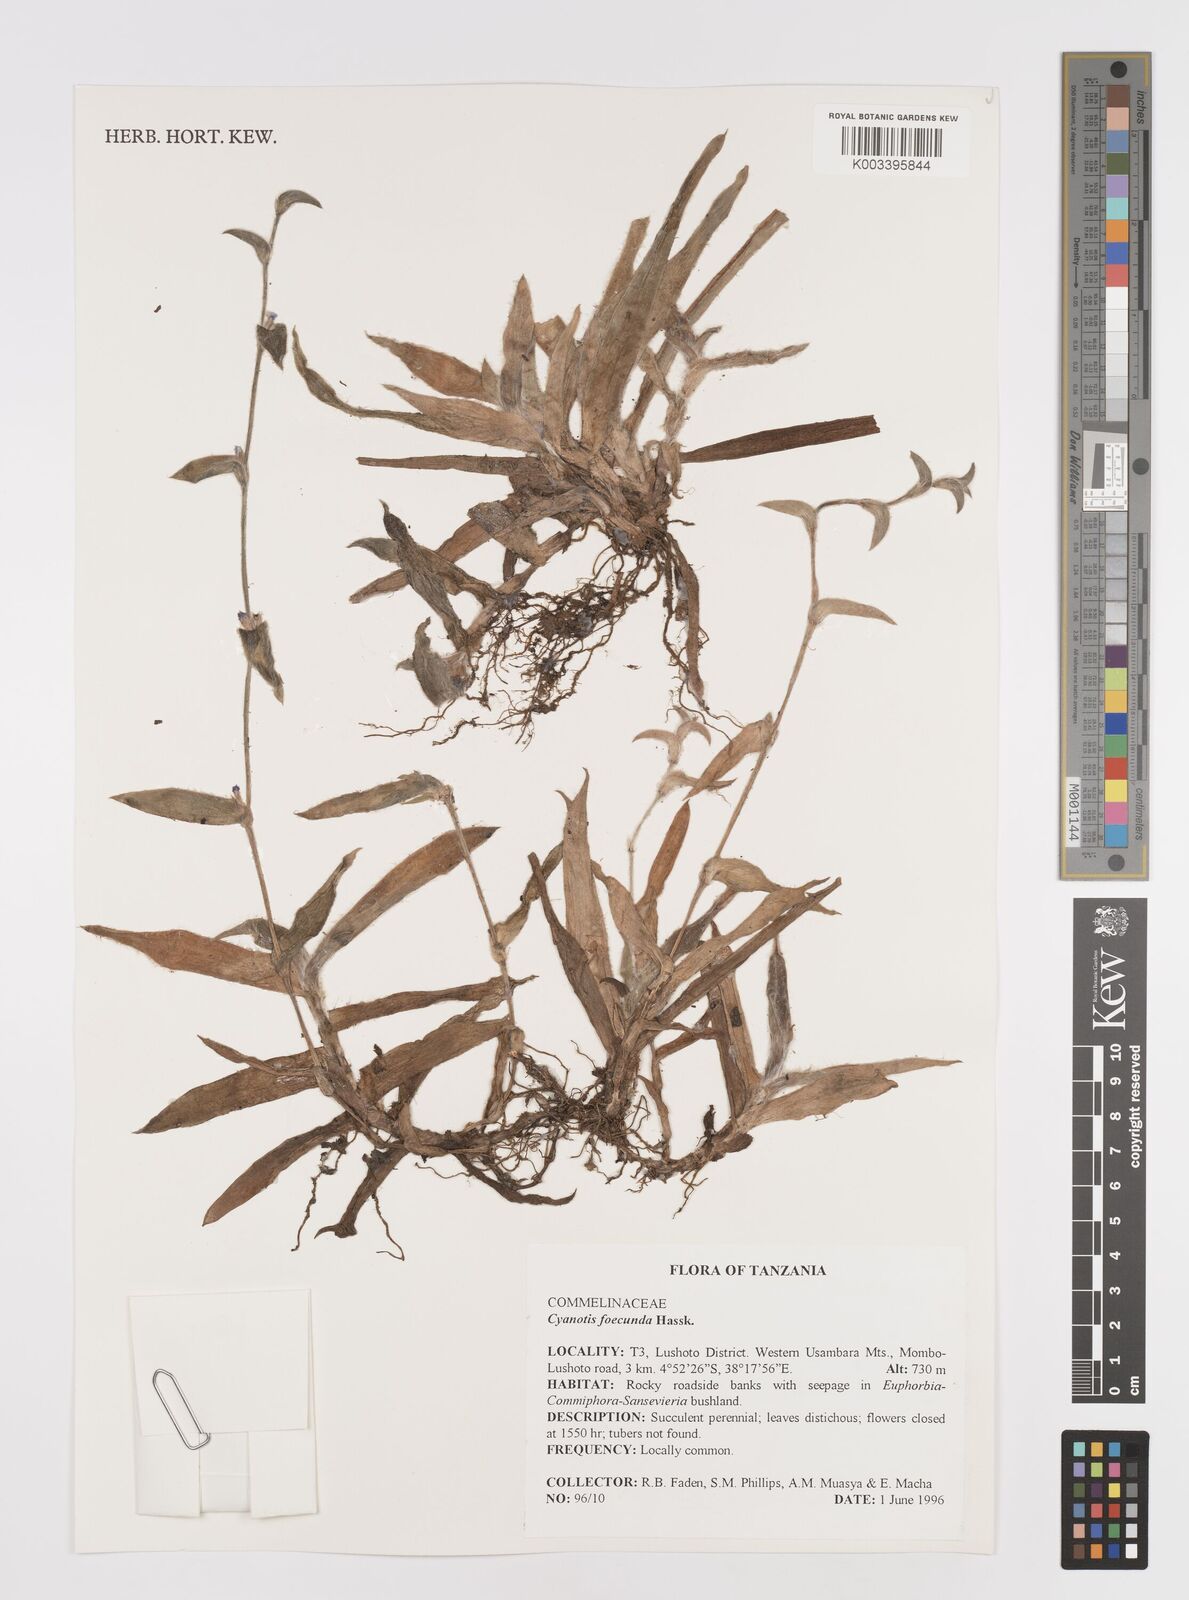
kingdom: Plantae
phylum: Tracheophyta
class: Liliopsida
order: Commelinales
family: Commelinaceae
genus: Cyanotis
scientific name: Cyanotis foecunda
